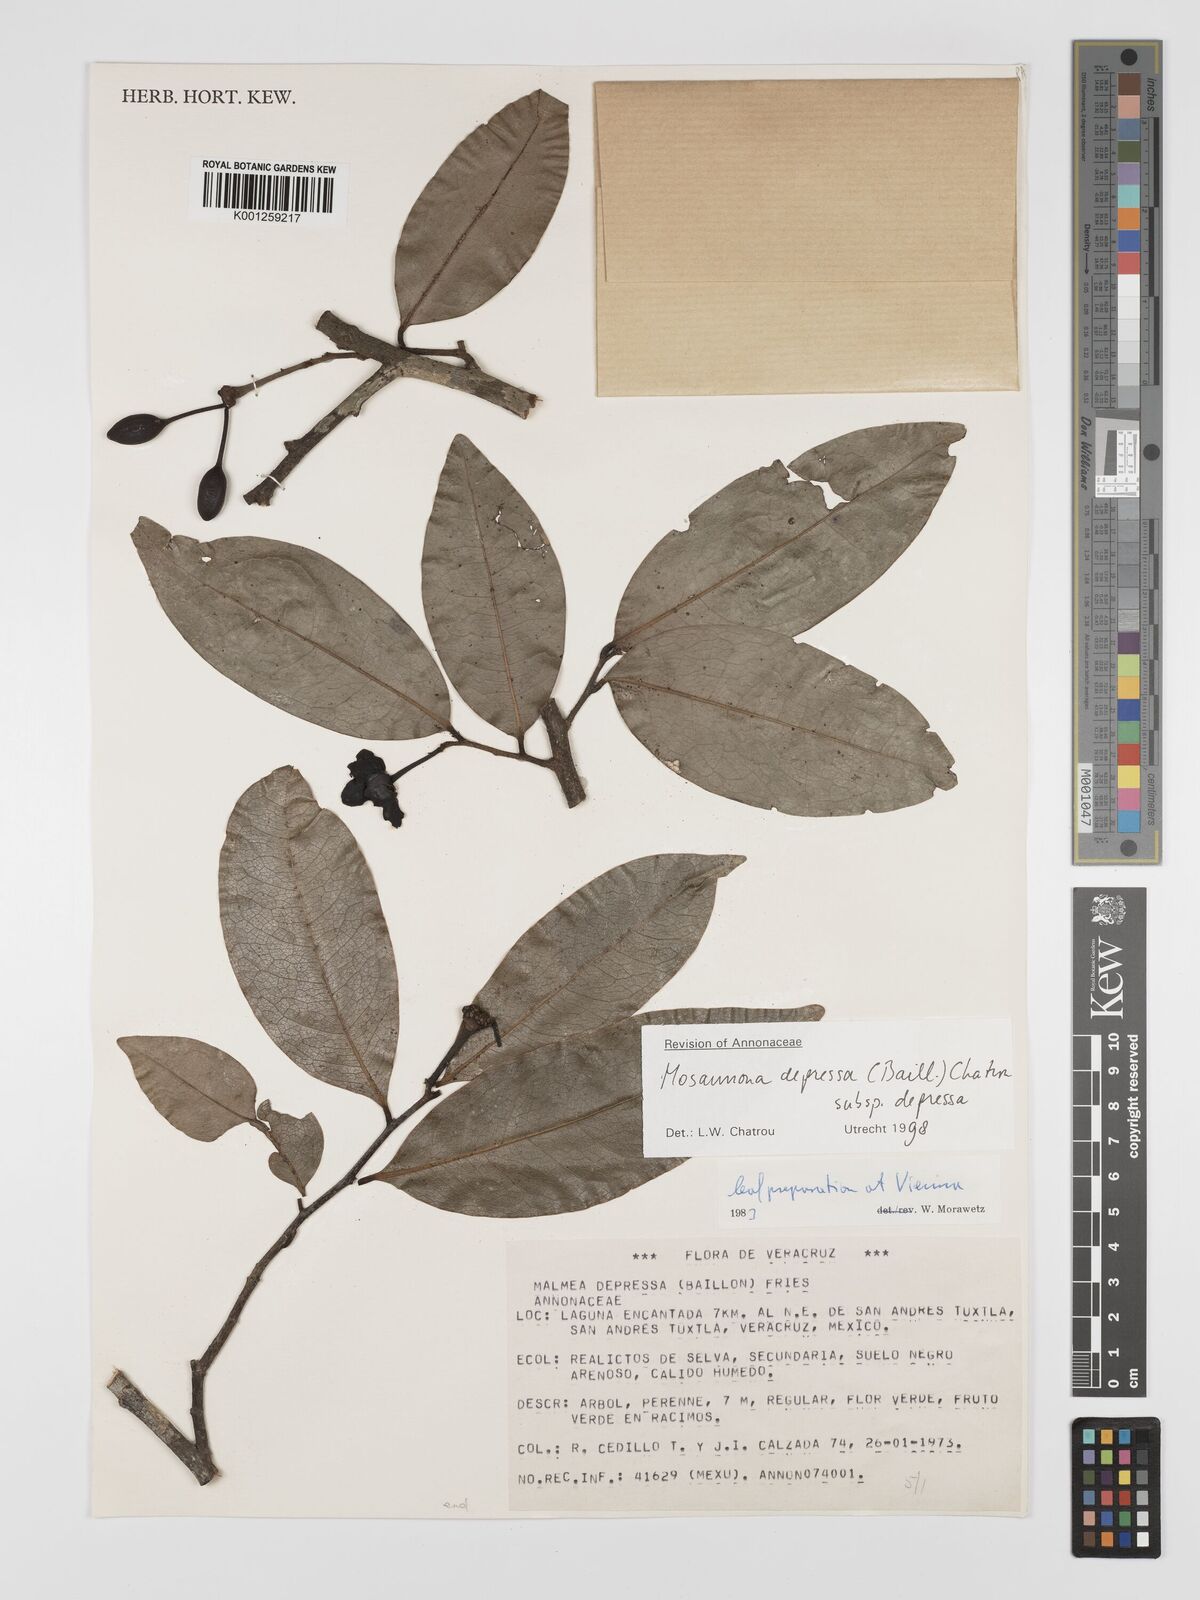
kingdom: Plantae
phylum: Tracheophyta
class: Magnoliopsida
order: Magnoliales
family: Annonaceae
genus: Mosannona
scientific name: Mosannona depressa
